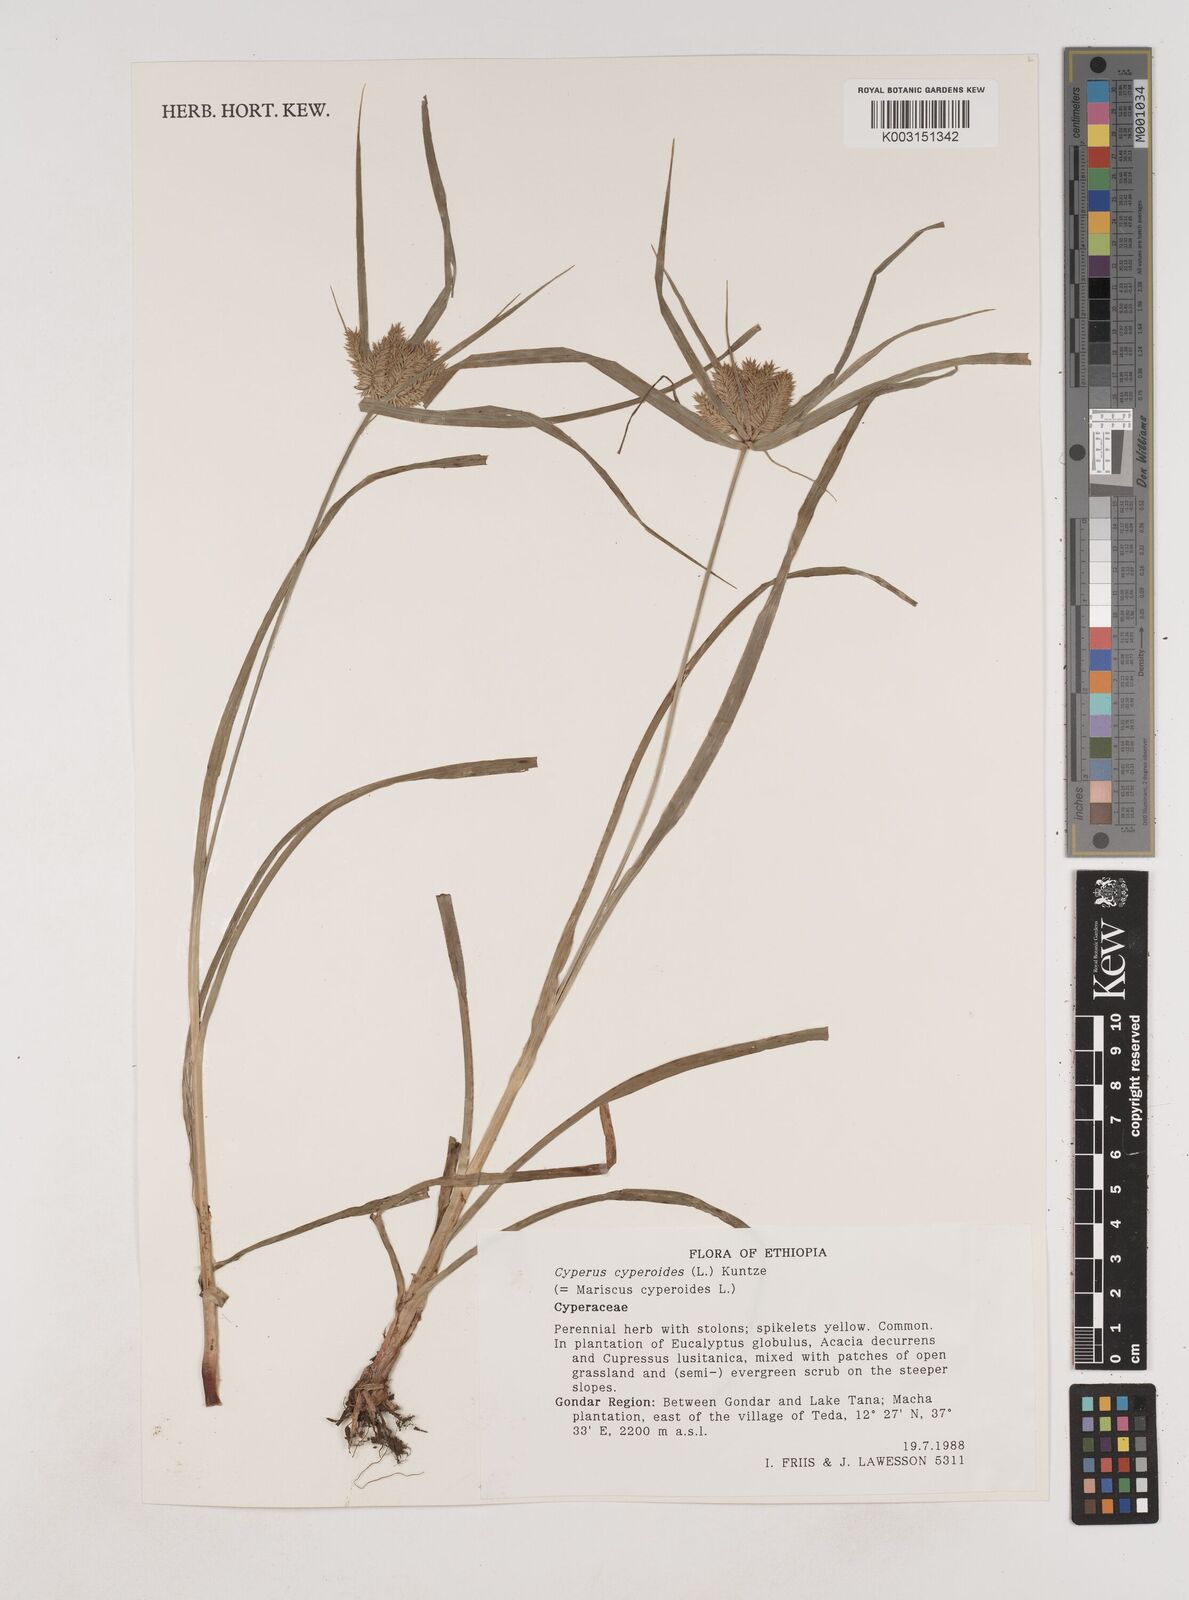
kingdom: Plantae
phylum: Tracheophyta
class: Liliopsida
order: Poales
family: Cyperaceae
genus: Cyperus
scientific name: Cyperus cyperoides
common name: Pacific island flat sedge
